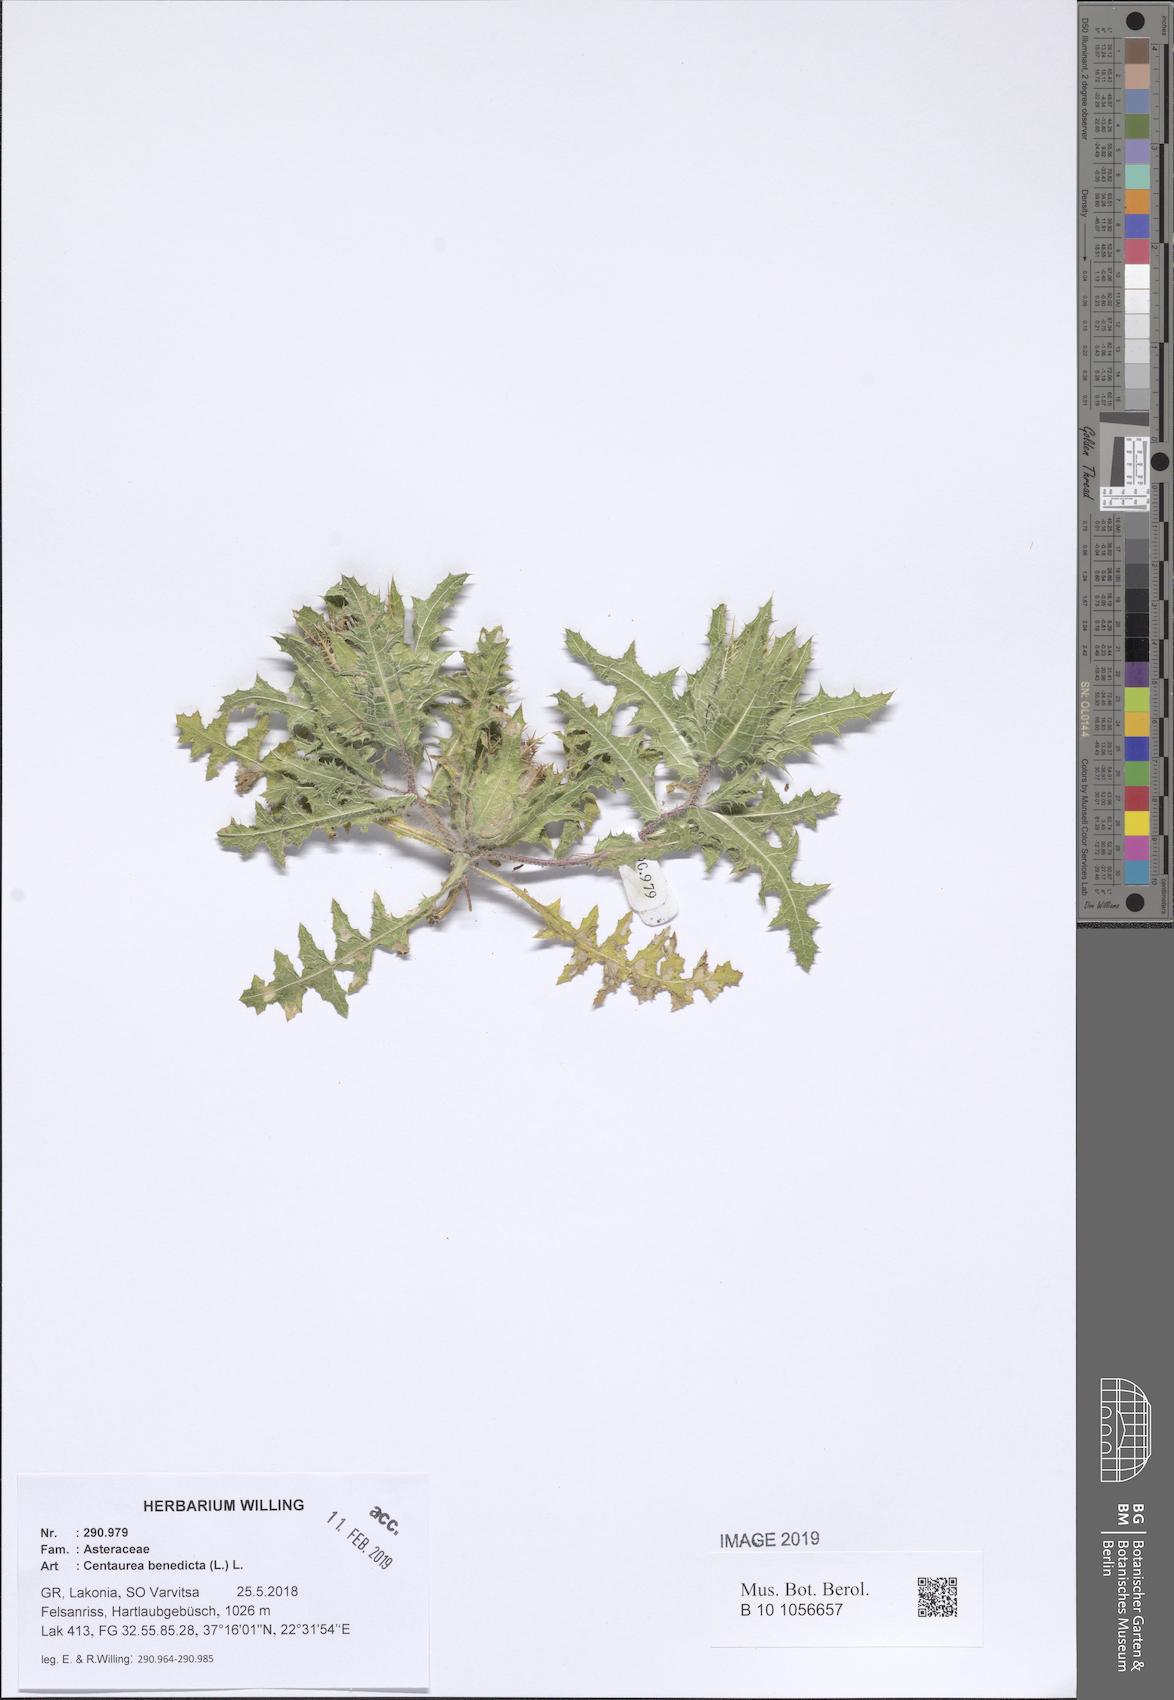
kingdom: Plantae
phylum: Tracheophyta
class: Magnoliopsida
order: Asterales
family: Asteraceae
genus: Centaurea
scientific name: Centaurea benedicta
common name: Blessed thistle
